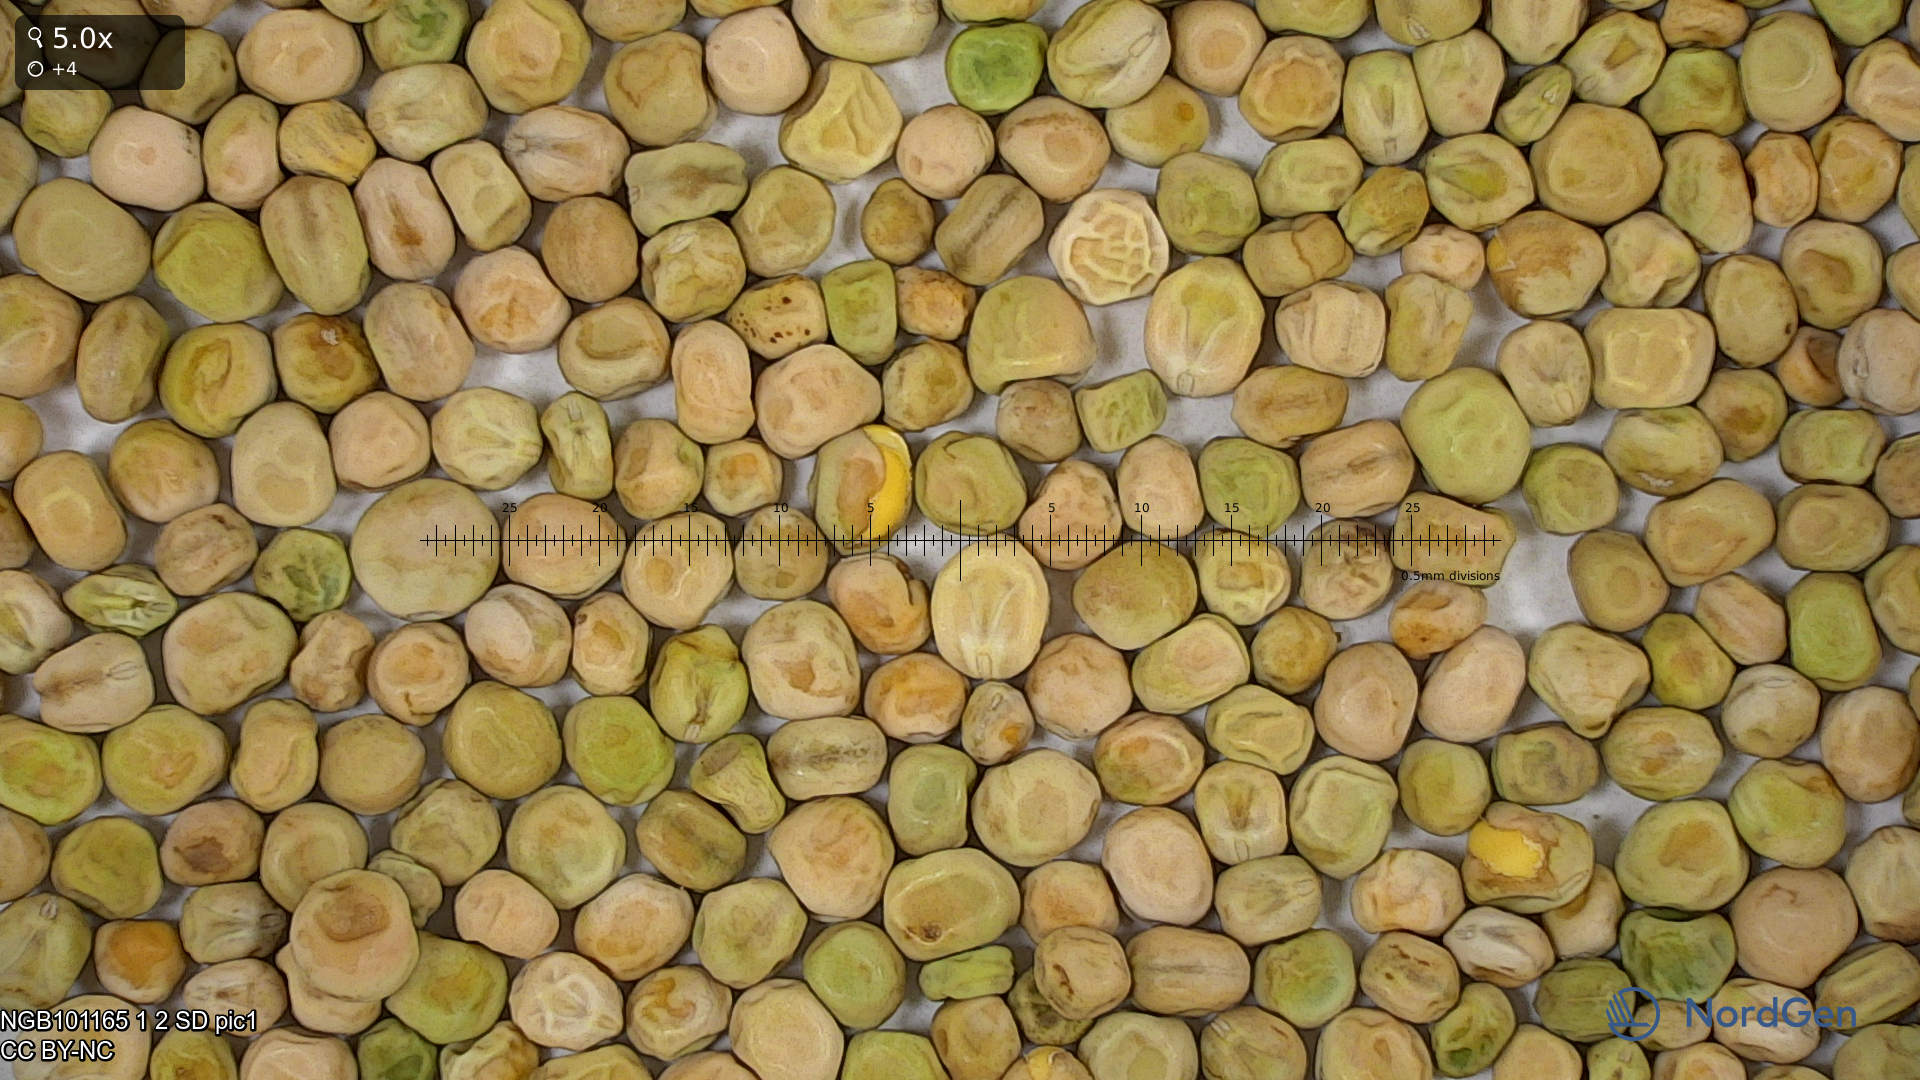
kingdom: Plantae
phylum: Tracheophyta
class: Magnoliopsida
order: Fabales
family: Fabaceae
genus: Lathyrus
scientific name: Lathyrus oleraceus
